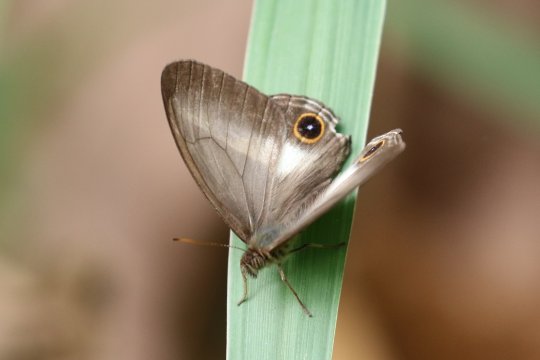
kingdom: Animalia
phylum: Arthropoda
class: Insecta
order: Lepidoptera
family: Nymphalidae
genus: Euptychoides
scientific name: Euptychoides albofasciata
